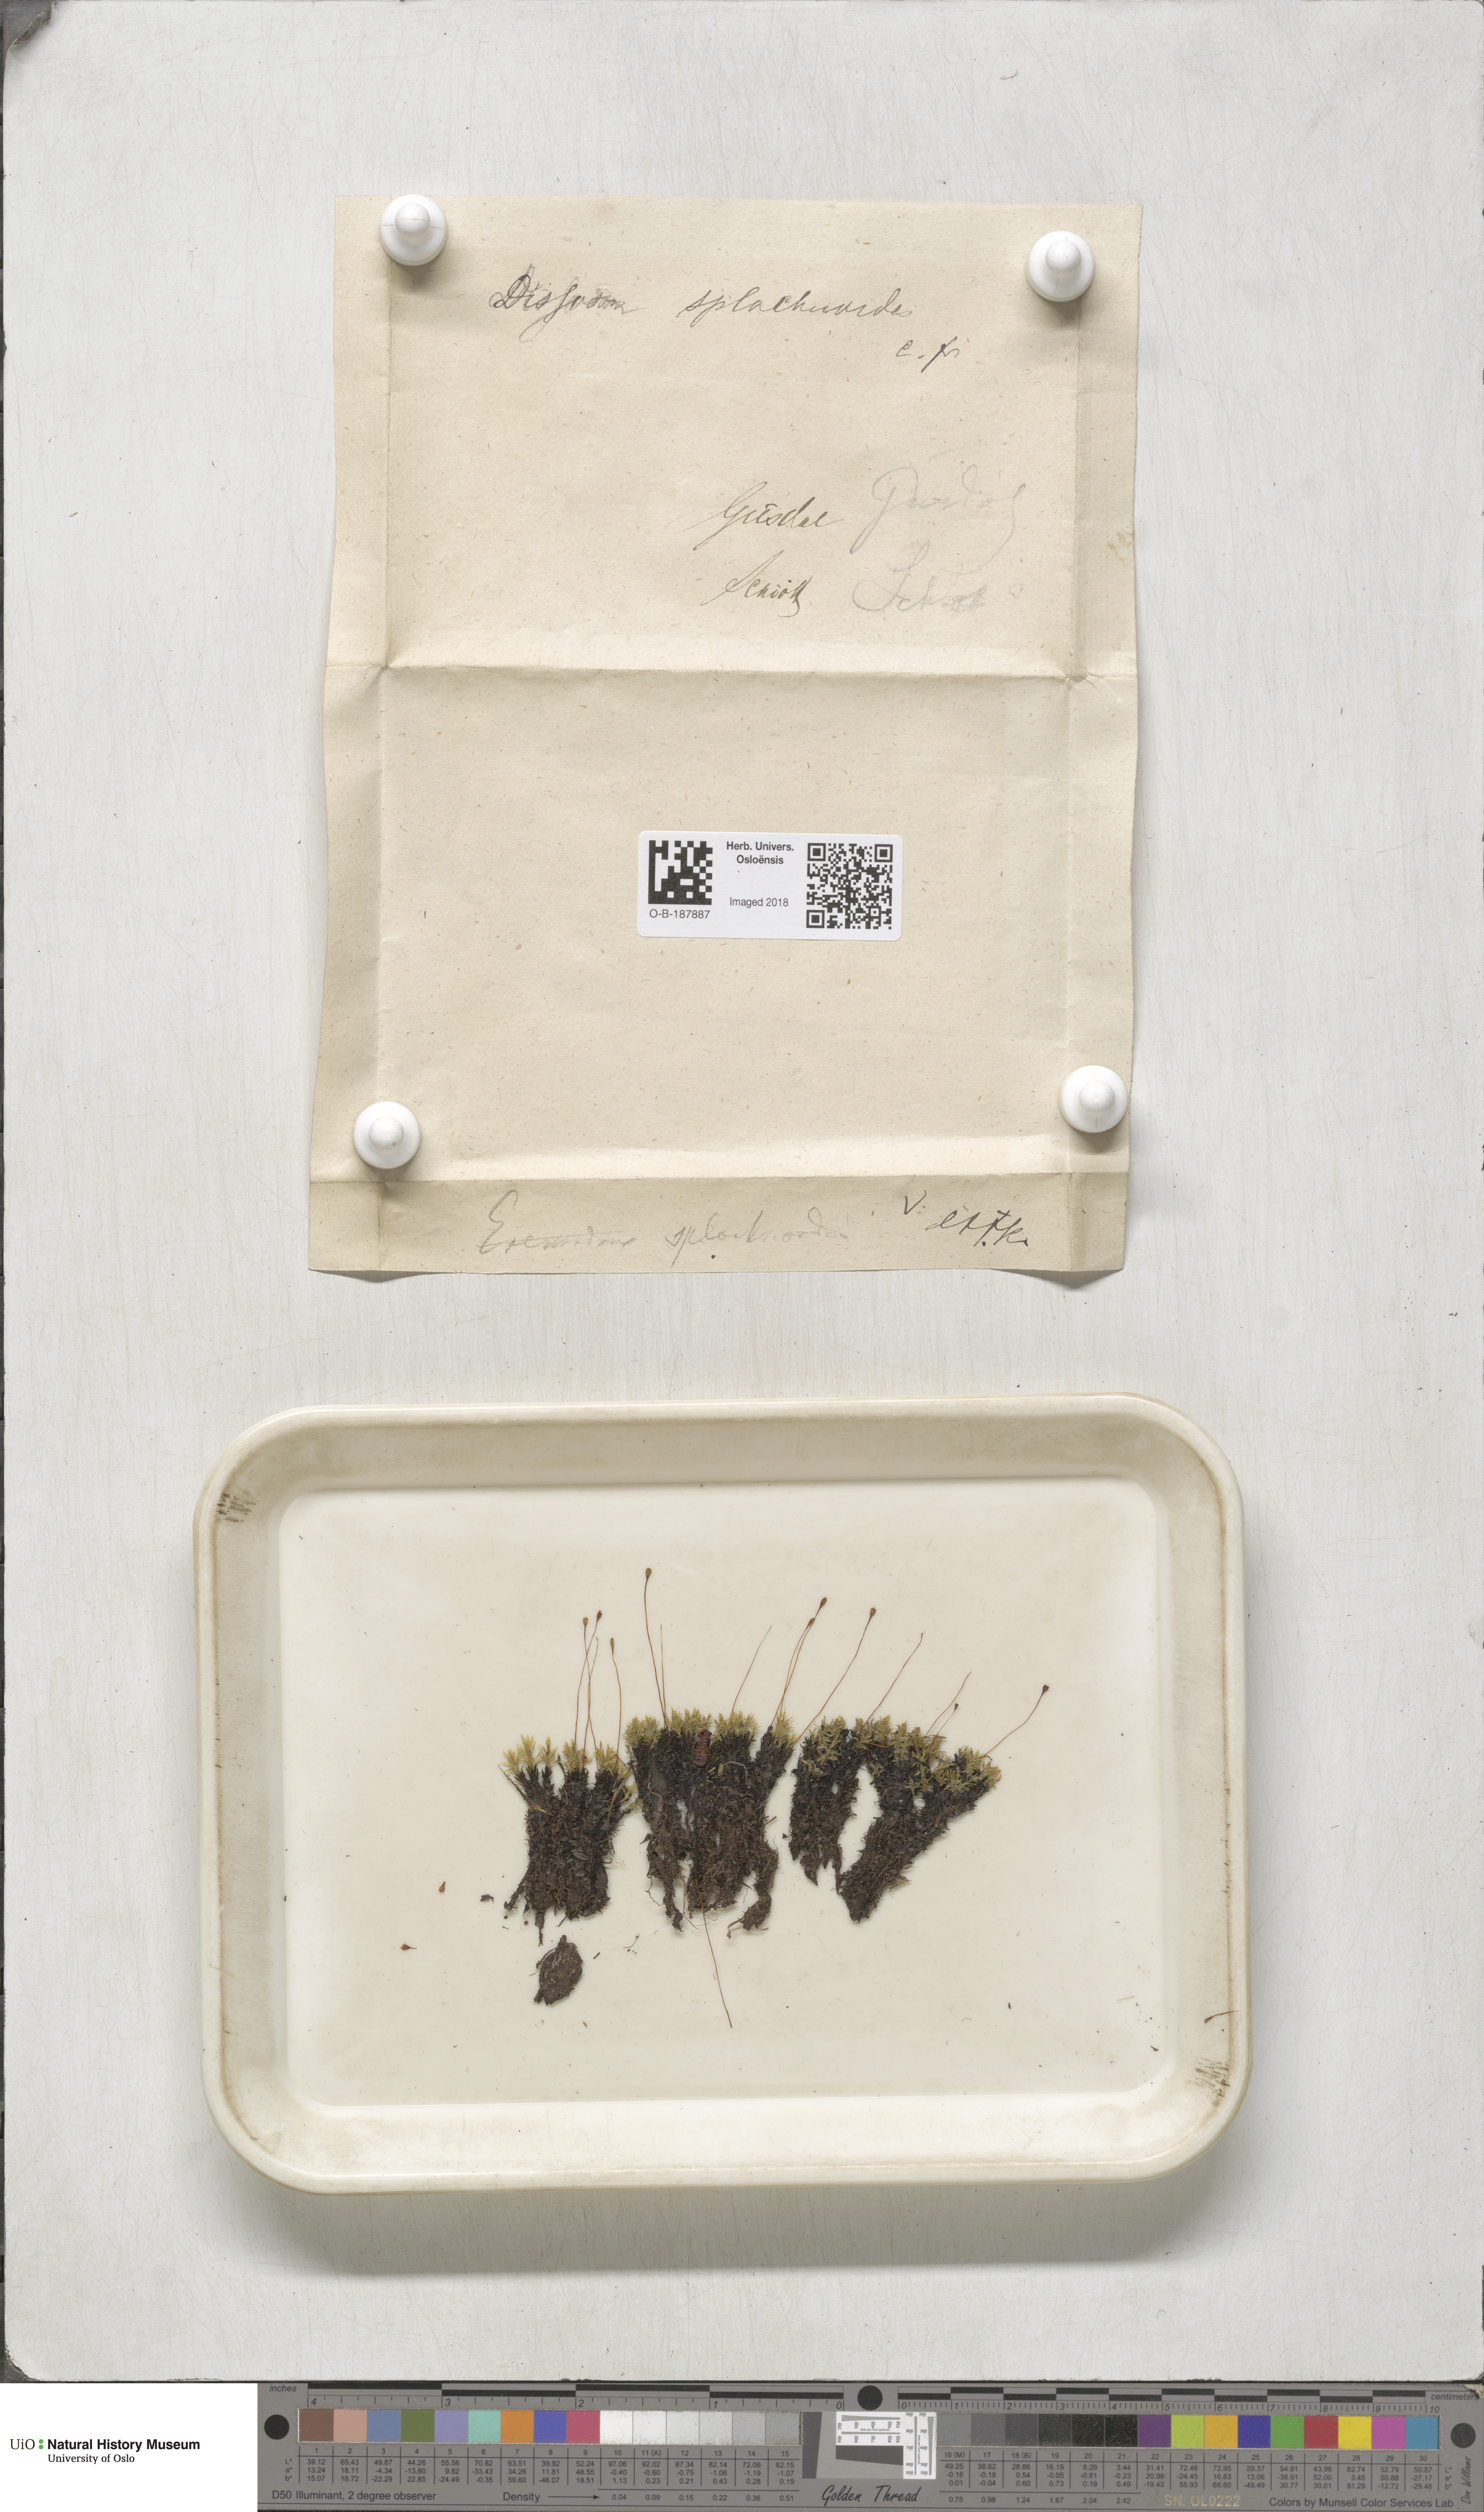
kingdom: Plantae
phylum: Bryophyta
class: Bryopsida
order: Splachnales
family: Splachnaceae
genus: Tayloria
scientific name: Tayloria lingulata
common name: Tongue-leaved trumpet moss
